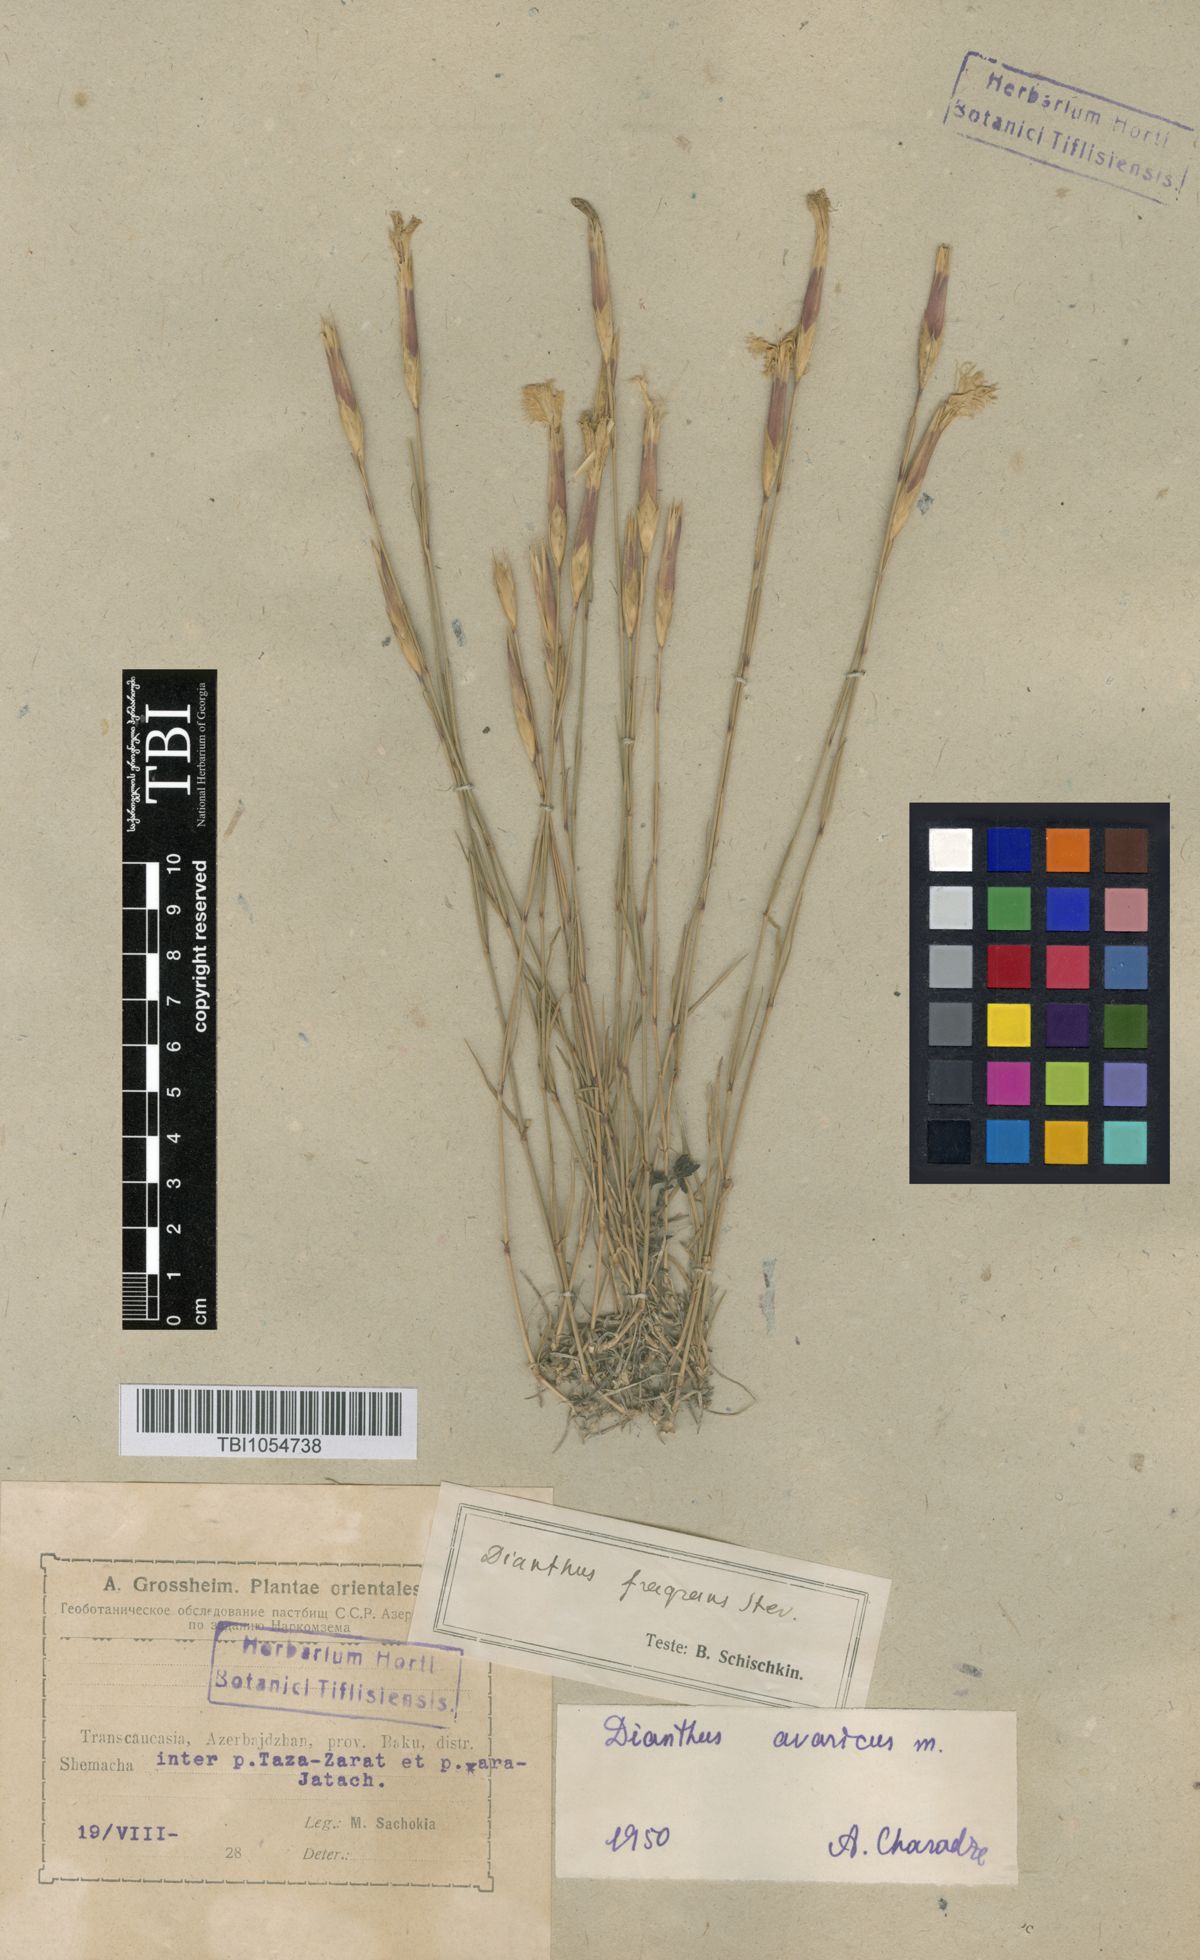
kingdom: Plantae
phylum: Tracheophyta
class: Magnoliopsida
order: Caryophyllales
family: Caryophyllaceae
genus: Dianthus
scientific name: Dianthus
